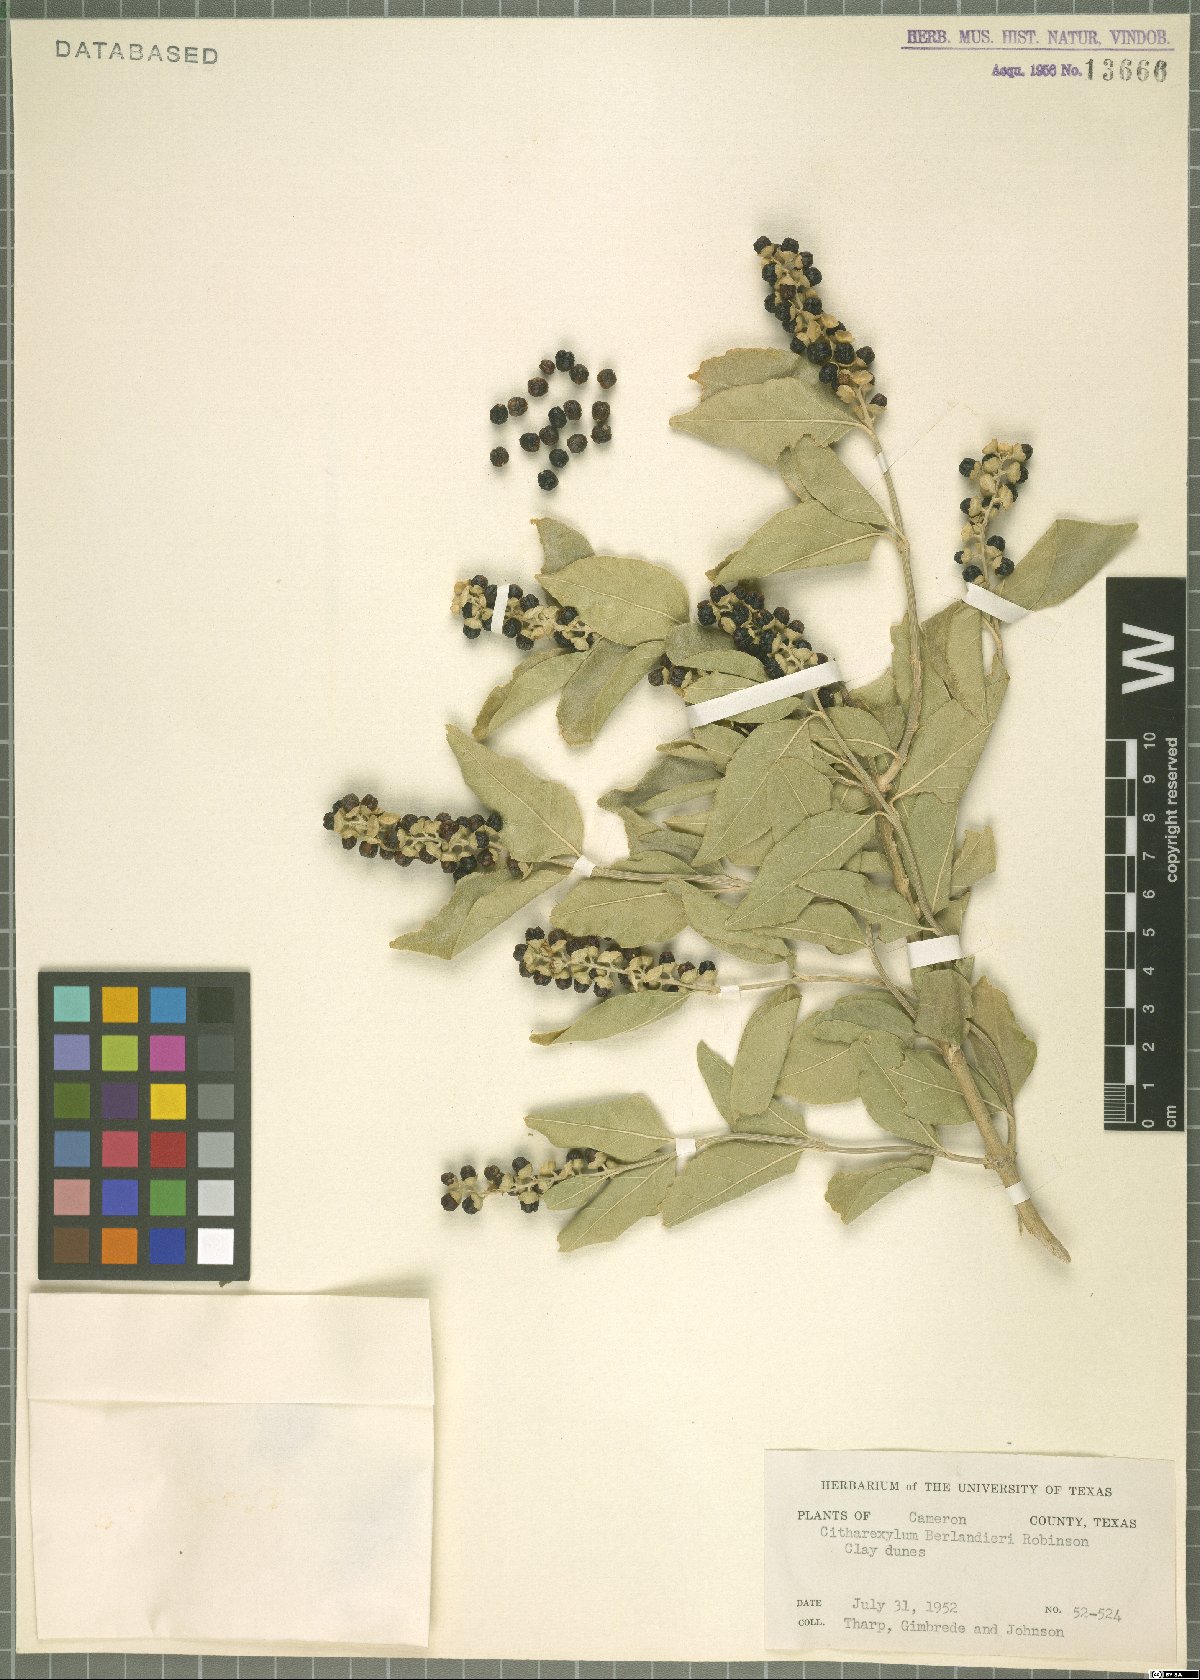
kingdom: Plantae
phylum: Tracheophyta
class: Magnoliopsida
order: Lamiales
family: Verbenaceae
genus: Citharexylum
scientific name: Citharexylum berlandieri
